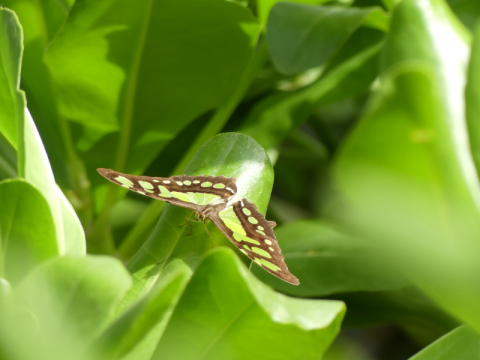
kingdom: Animalia
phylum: Arthropoda
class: Insecta
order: Lepidoptera
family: Nymphalidae
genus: Siproeta
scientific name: Siproeta stelenes
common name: Malachite
